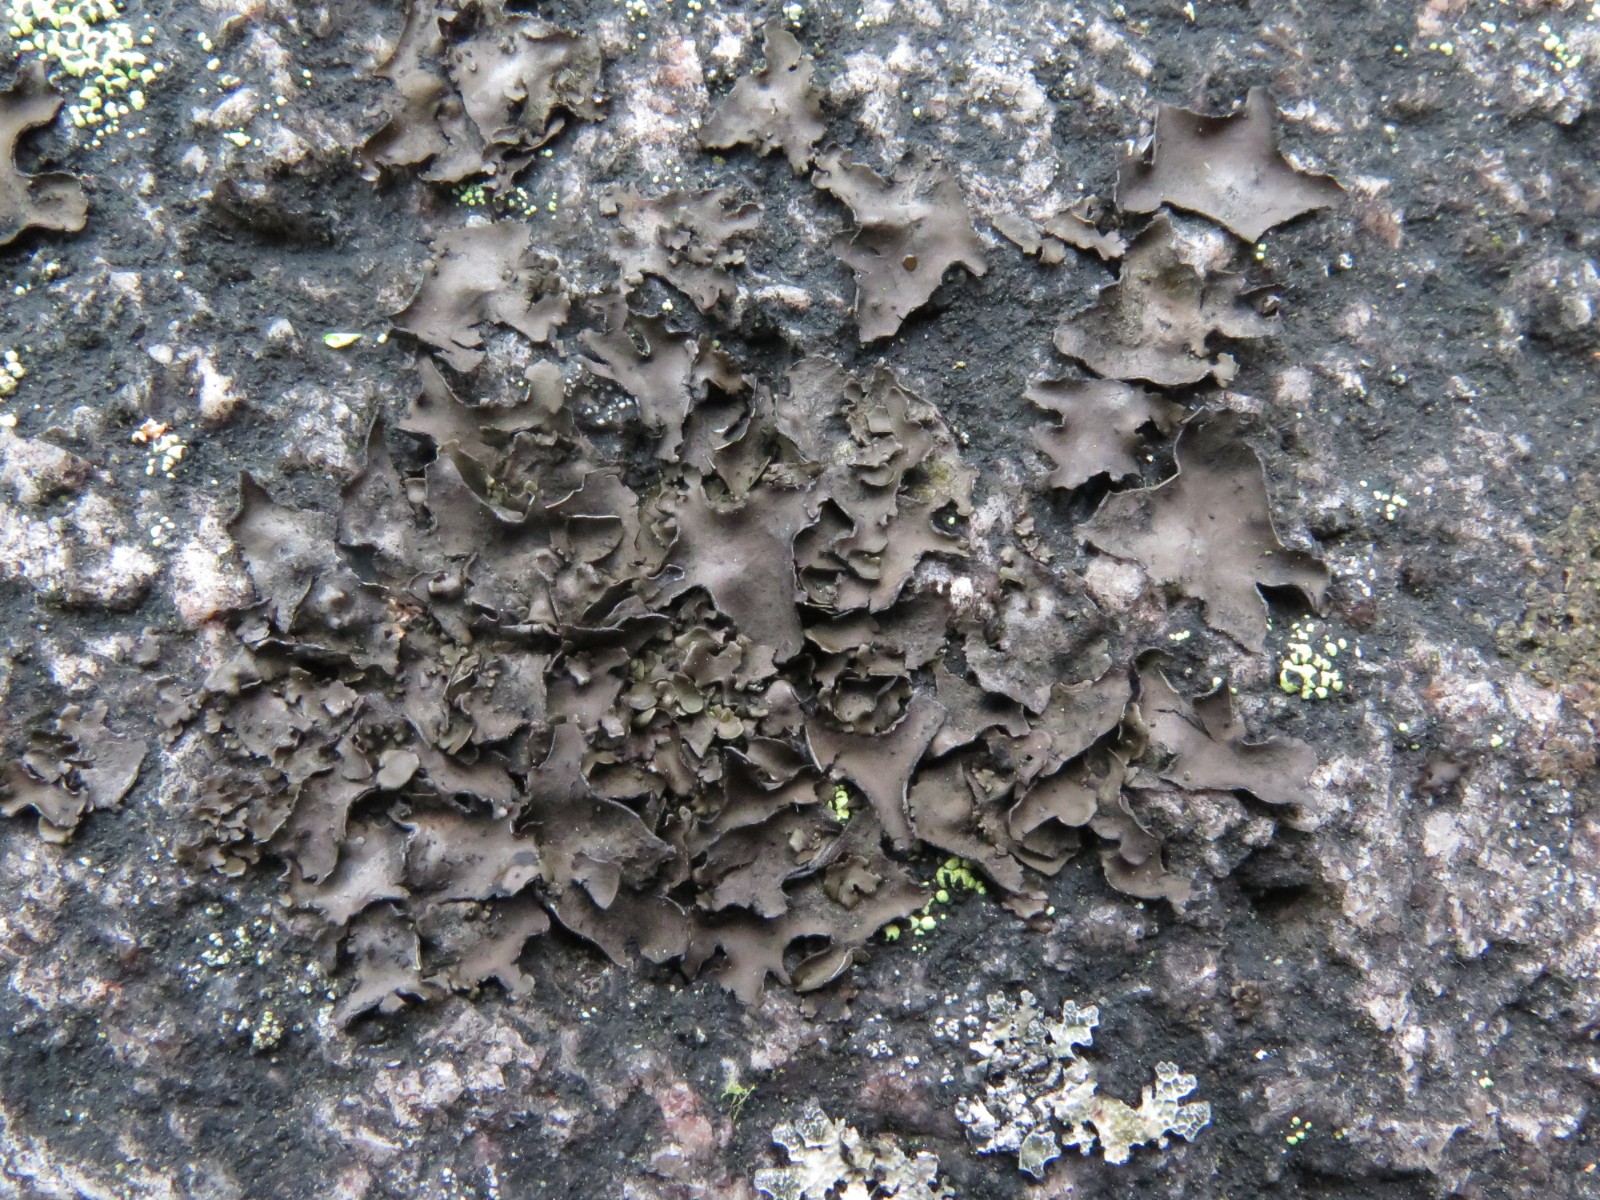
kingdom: Fungi
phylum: Ascomycota
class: Lecanoromycetes
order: Umbilicariales
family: Umbilicariaceae
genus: Umbilicaria
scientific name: Umbilicaria polyphylla
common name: glat navlelav
